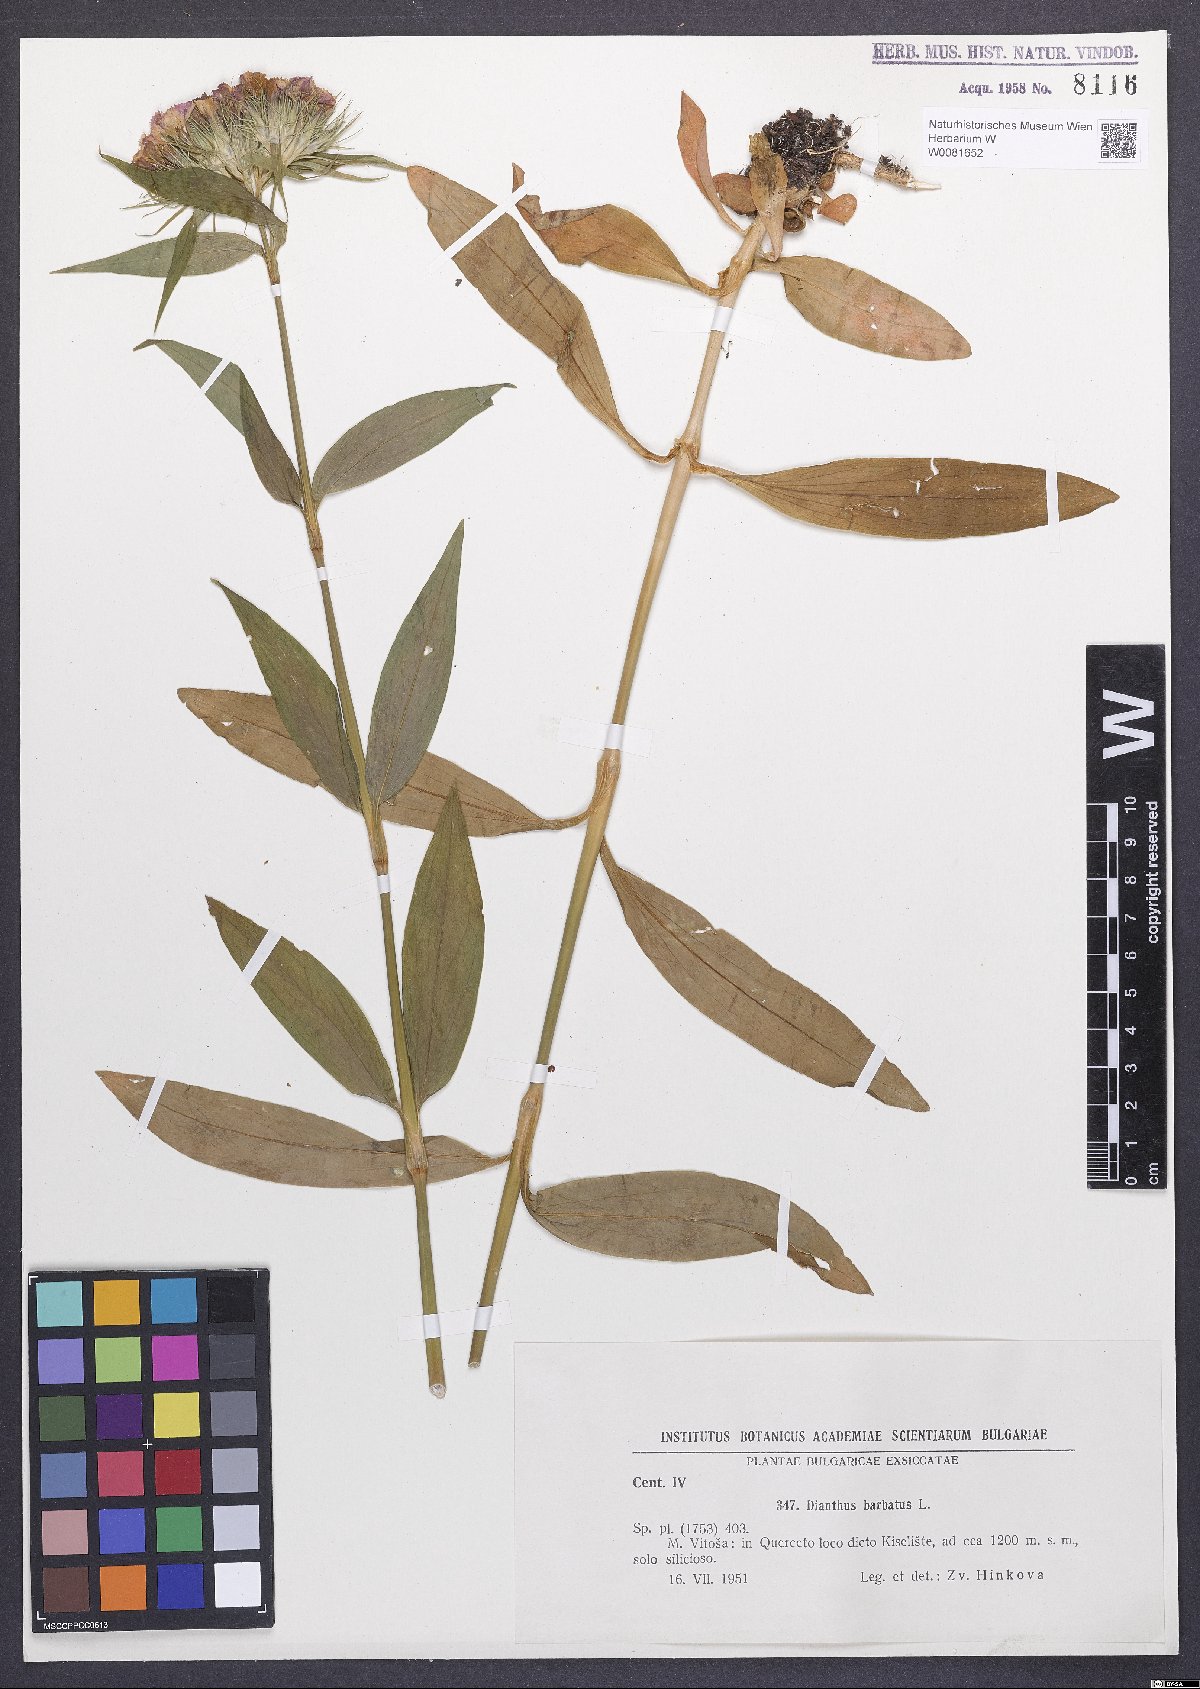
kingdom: Plantae
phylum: Tracheophyta
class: Magnoliopsida
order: Caryophyllales
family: Caryophyllaceae
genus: Dianthus
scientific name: Dianthus barbatus
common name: Sweet-william
